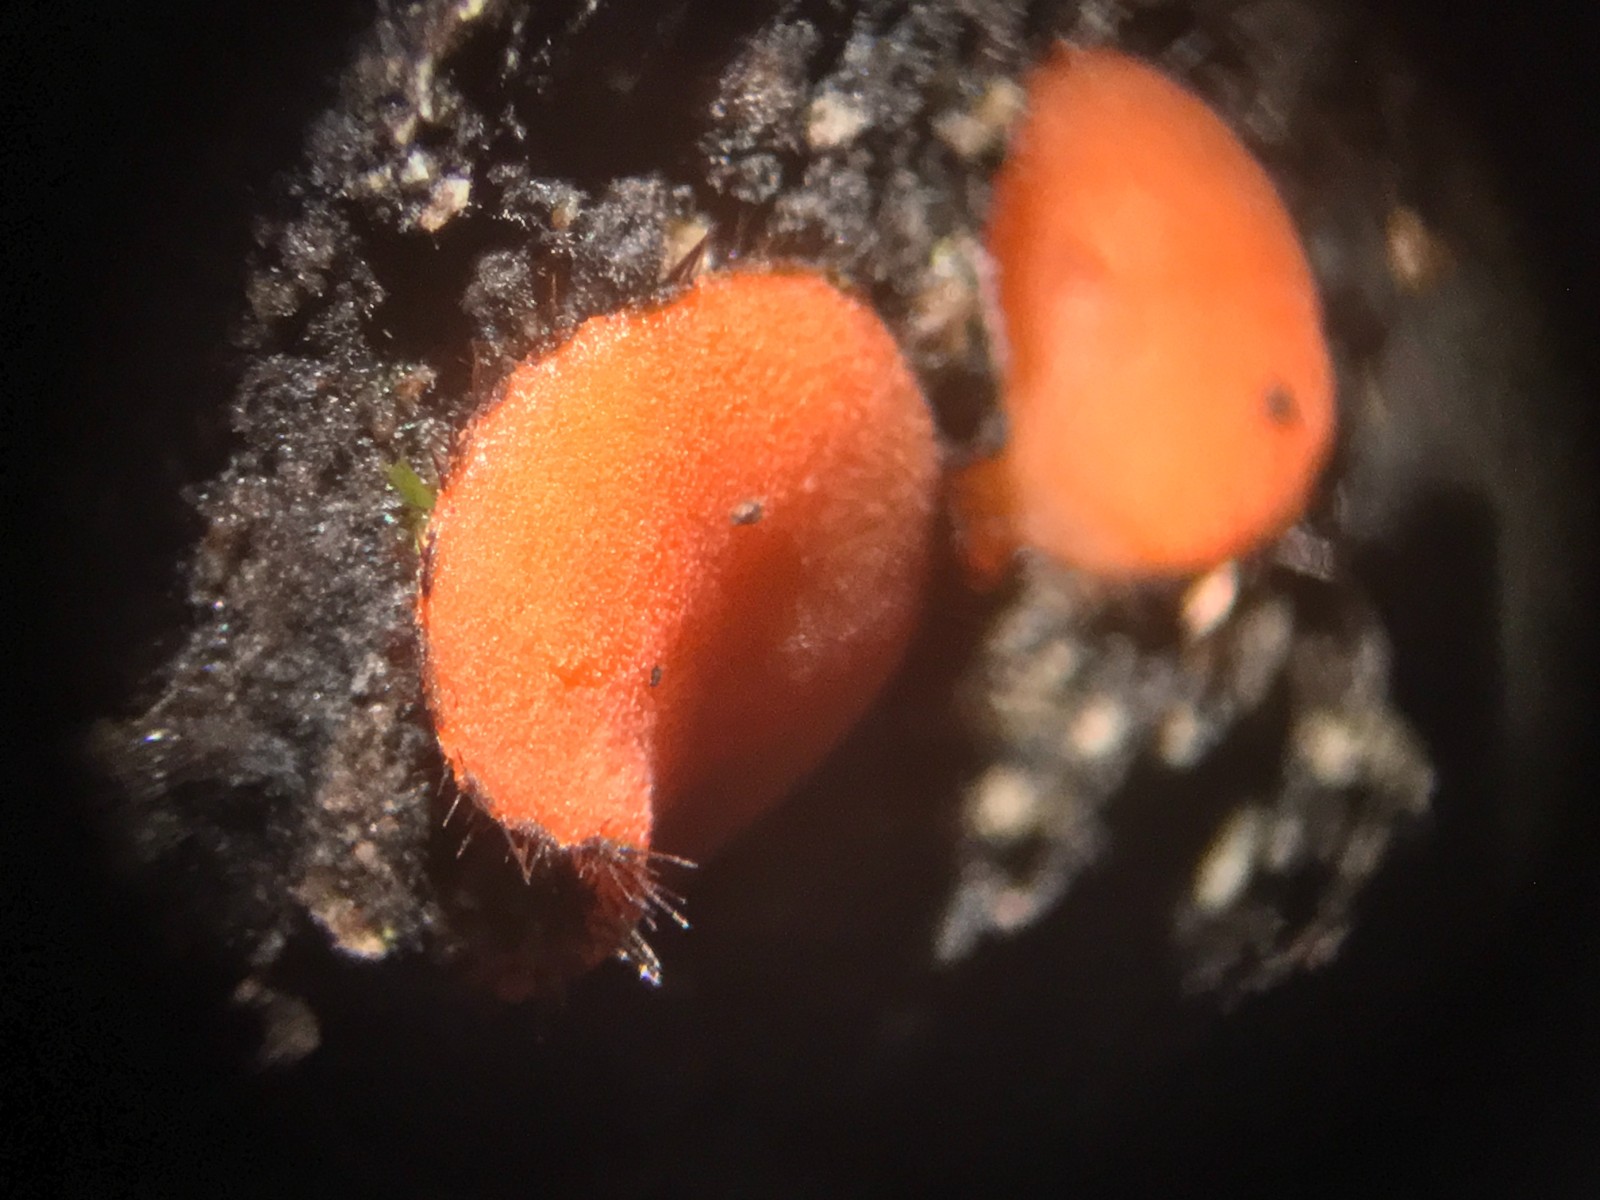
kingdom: Fungi
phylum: Ascomycota
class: Pezizomycetes
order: Pezizales
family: Pyronemataceae
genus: Scutellinia
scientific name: Scutellinia
